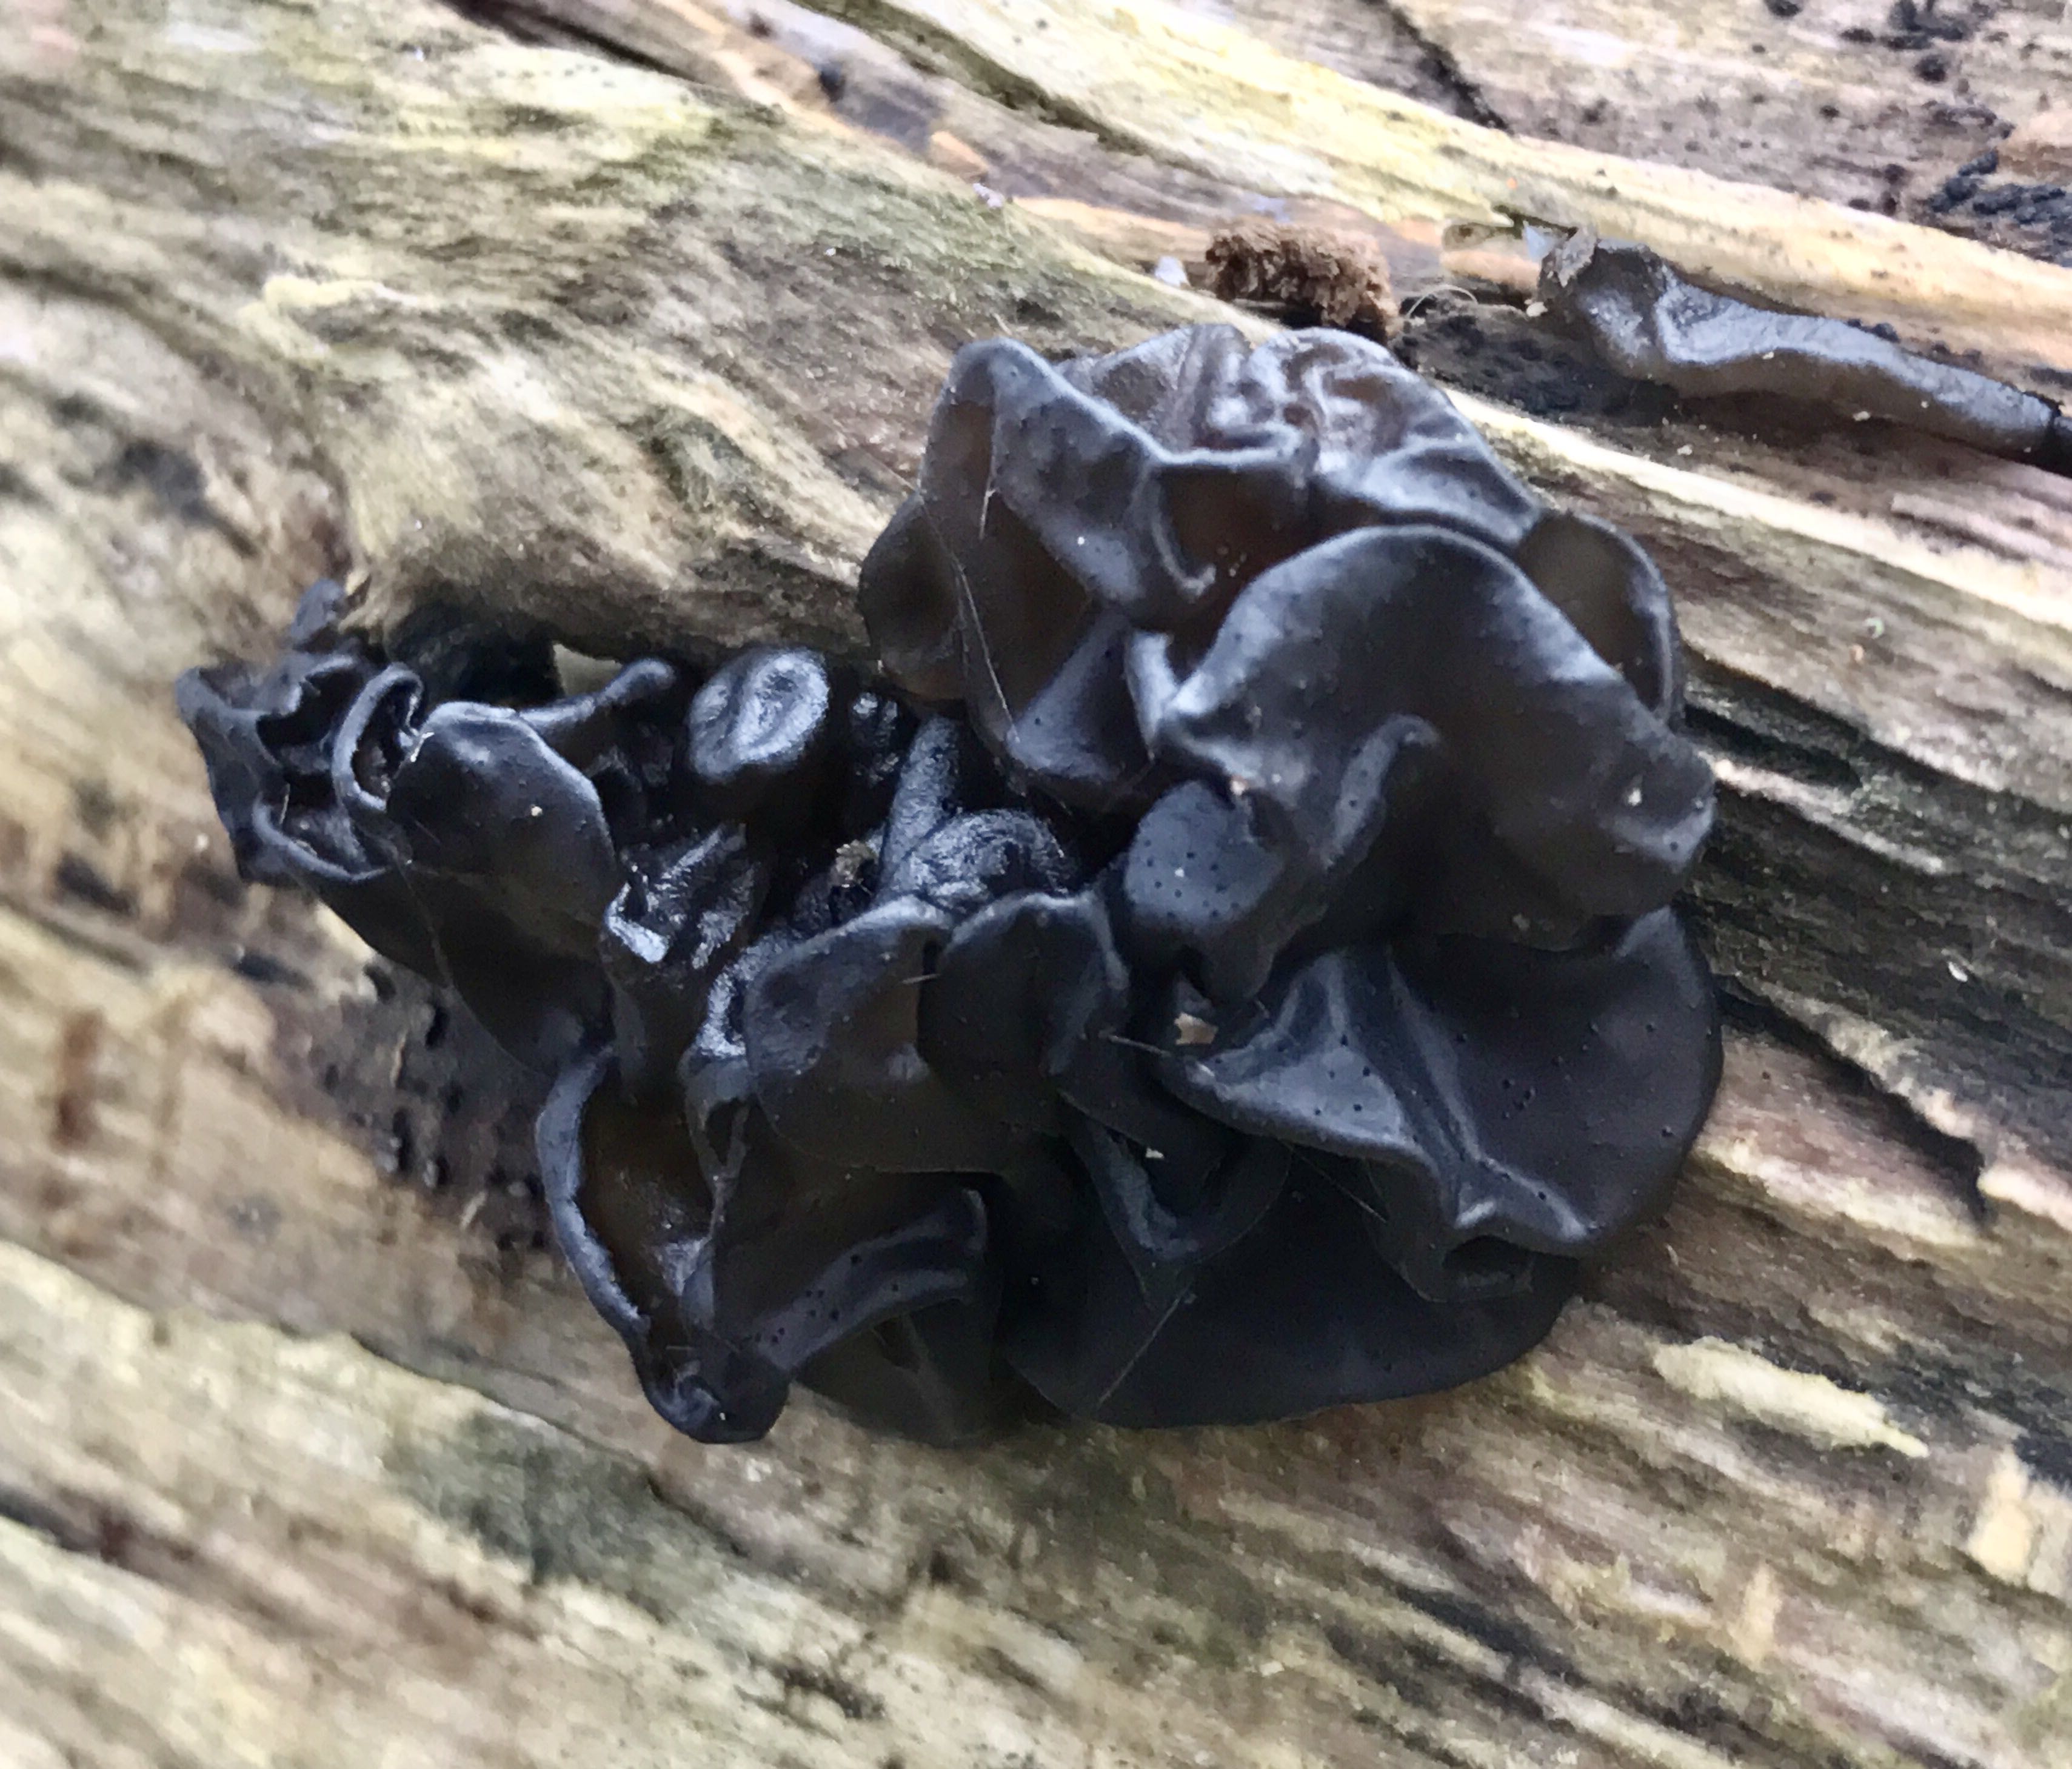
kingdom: Fungi
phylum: Basidiomycota
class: Agaricomycetes
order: Auriculariales
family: Auriculariaceae
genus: Exidia
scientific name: Exidia glandulosa
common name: ege-bævretop
